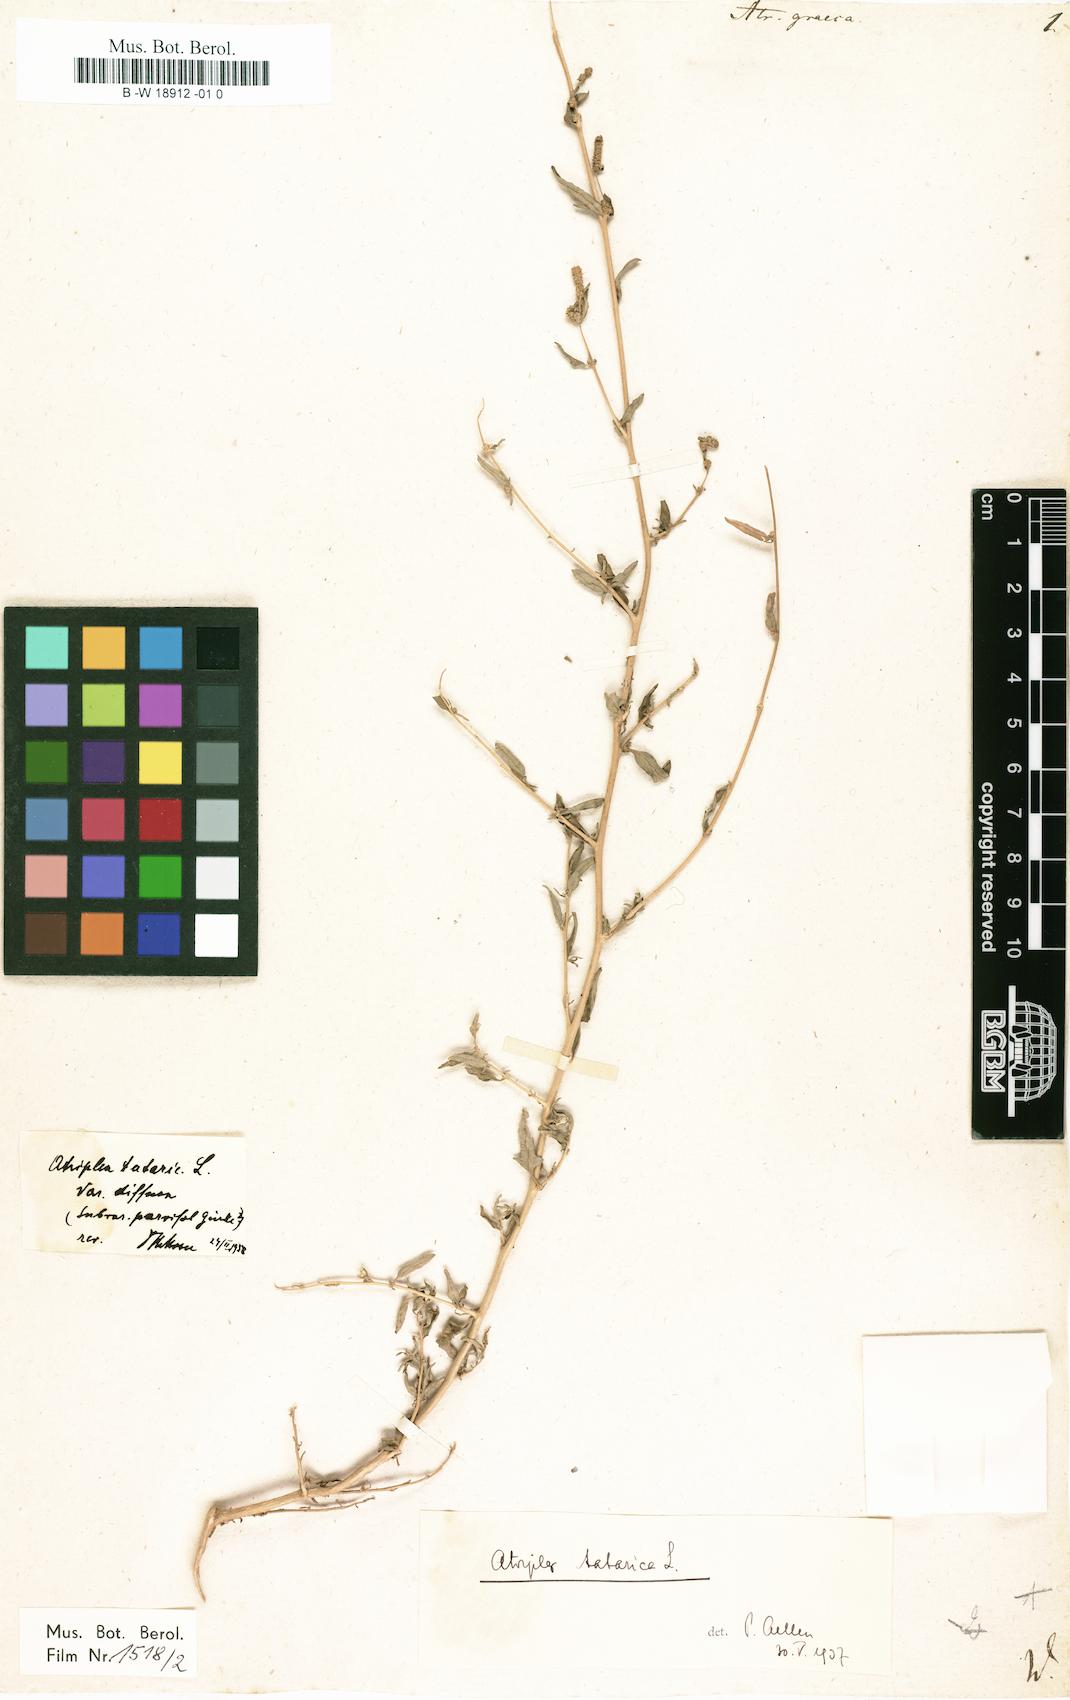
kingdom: Plantae
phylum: Tracheophyta
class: Magnoliopsida
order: Caryophyllales
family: Amaranthaceae
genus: Atriplex
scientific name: Atriplex graeca
